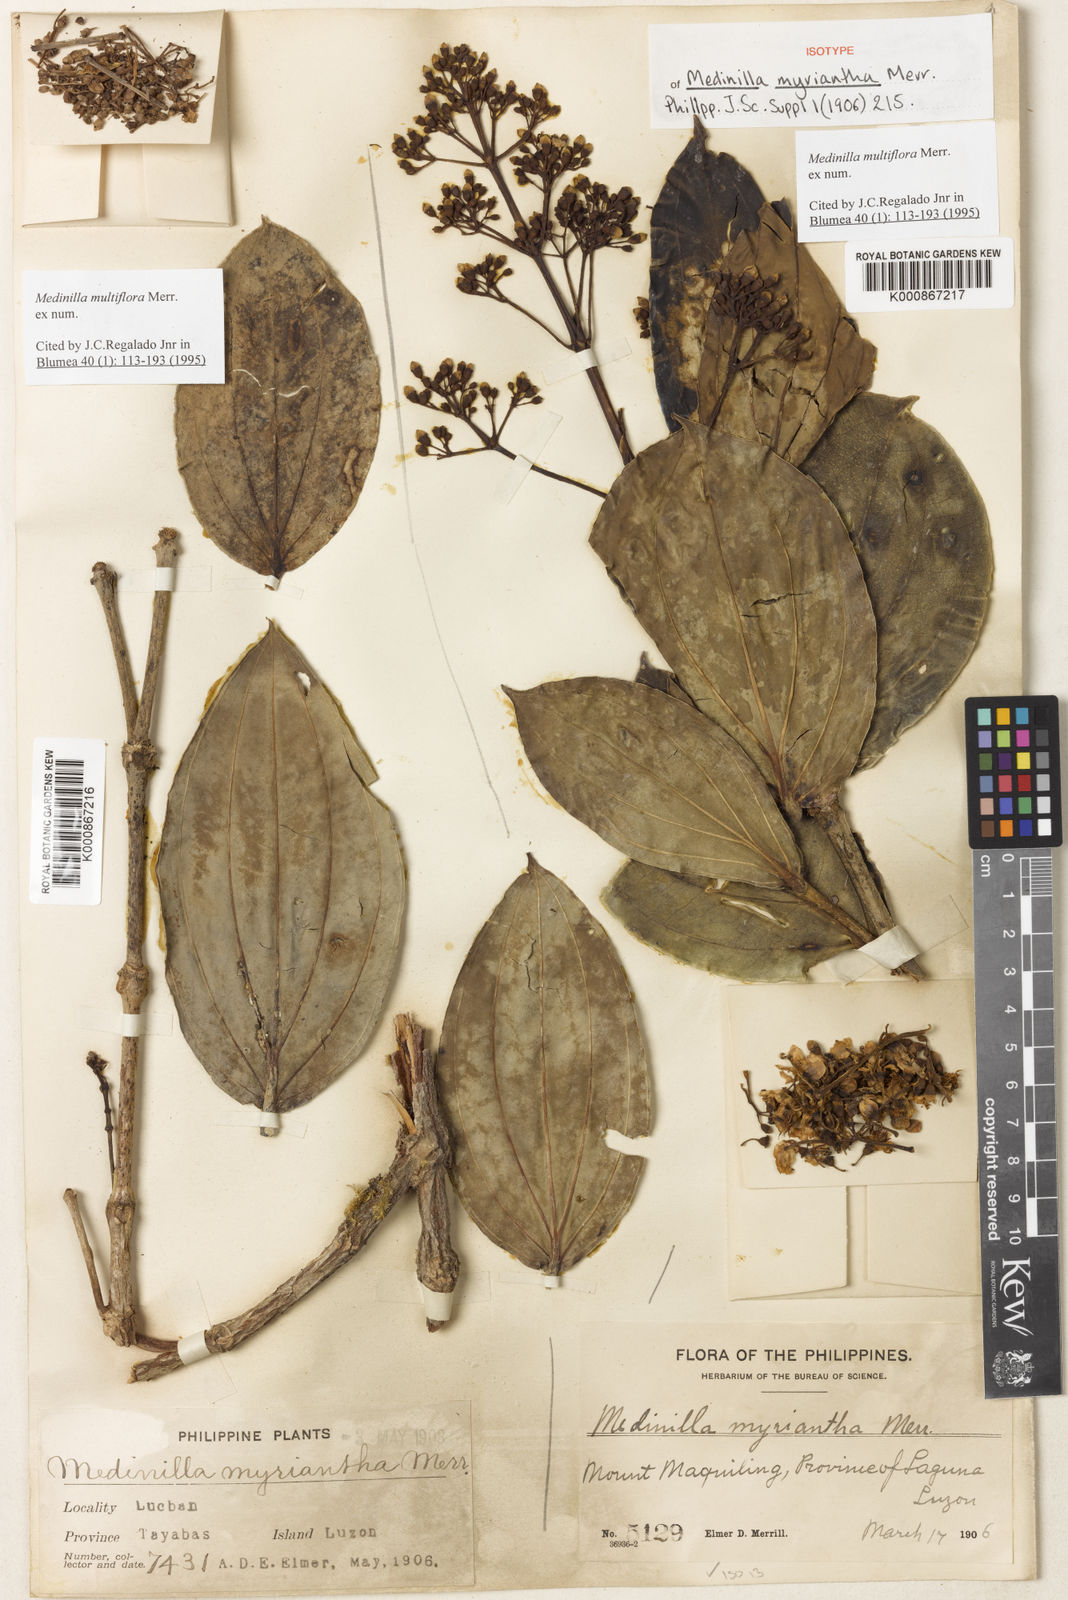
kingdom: Plantae
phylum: Tracheophyta
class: Magnoliopsida
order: Myrtales
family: Melastomataceae
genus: Medinilla
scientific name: Medinilla multiflora
